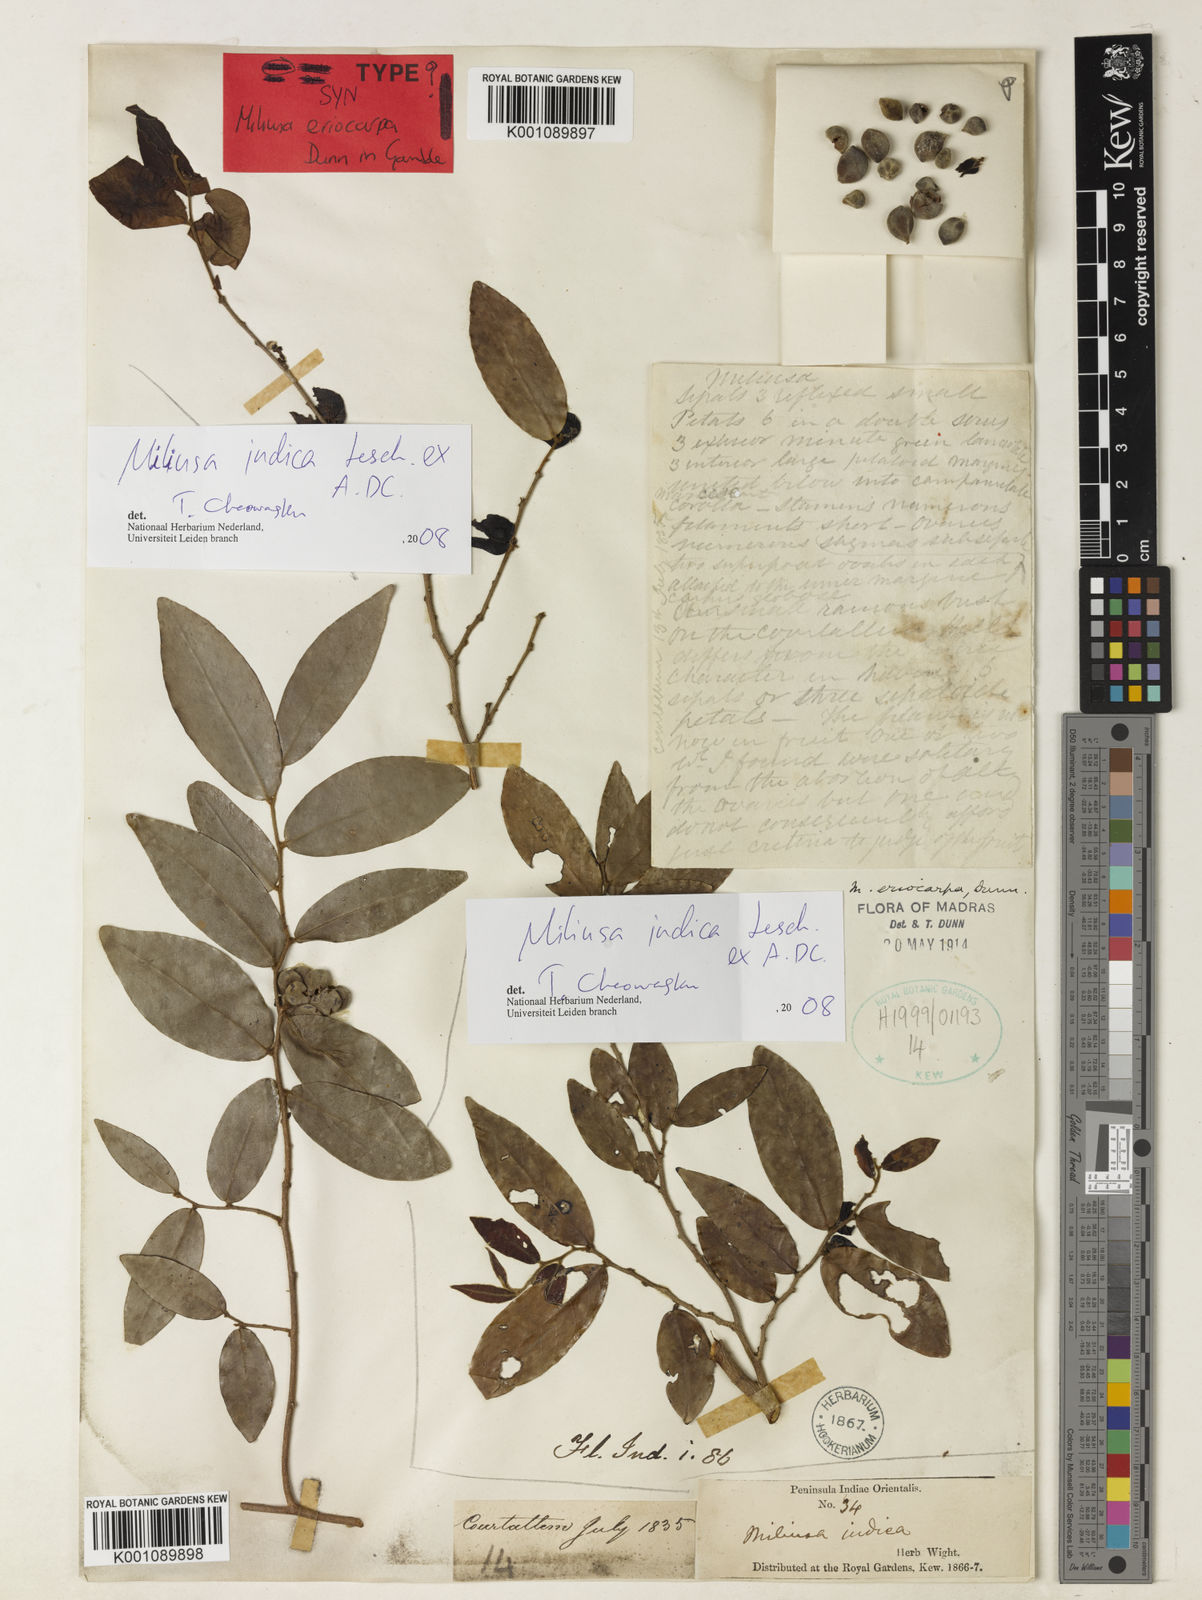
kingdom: Plantae
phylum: Tracheophyta
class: Magnoliopsida
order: Magnoliales
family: Annonaceae
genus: Miliusa
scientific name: Miliusa eriocarpa
